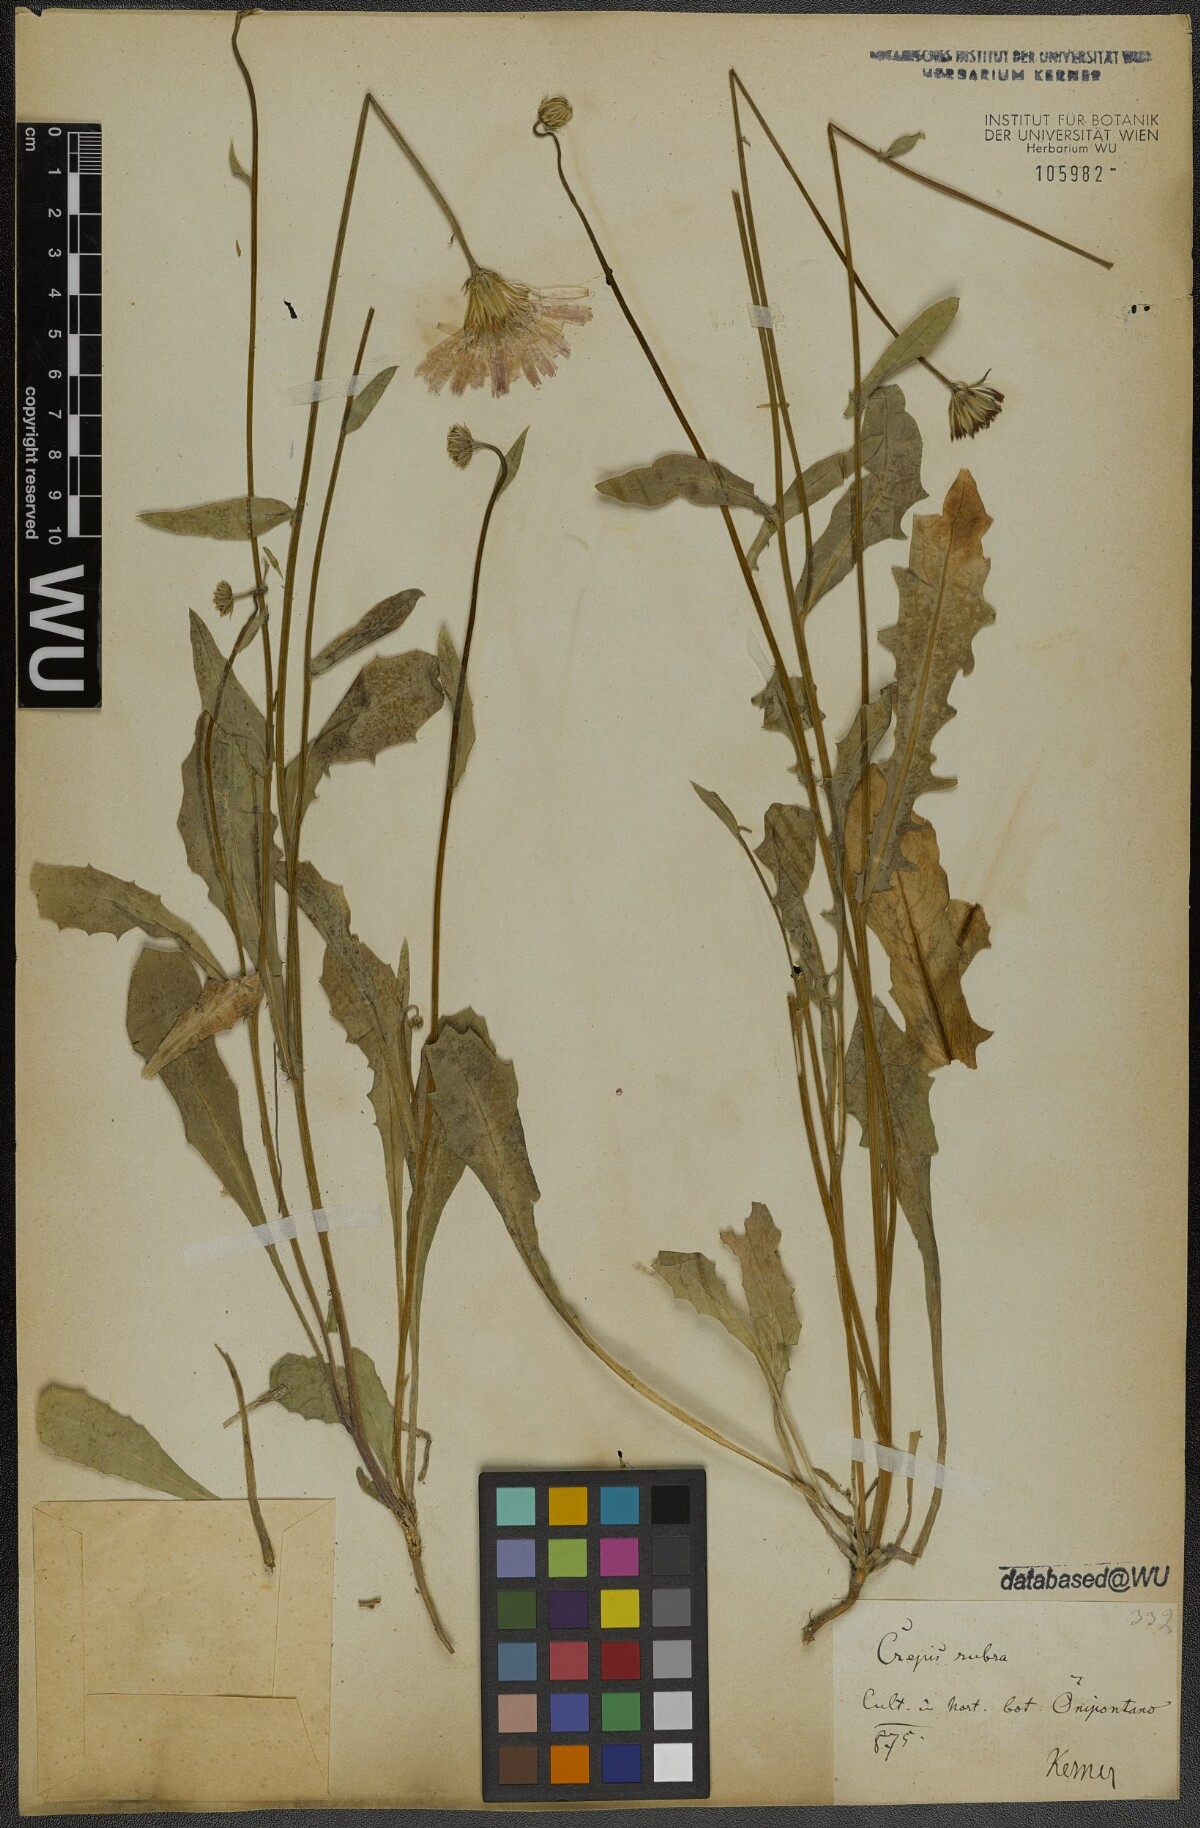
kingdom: Plantae
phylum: Tracheophyta
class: Magnoliopsida
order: Asterales
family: Asteraceae
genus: Crepis
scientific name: Crepis rubra
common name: Pink hawk's-beard
